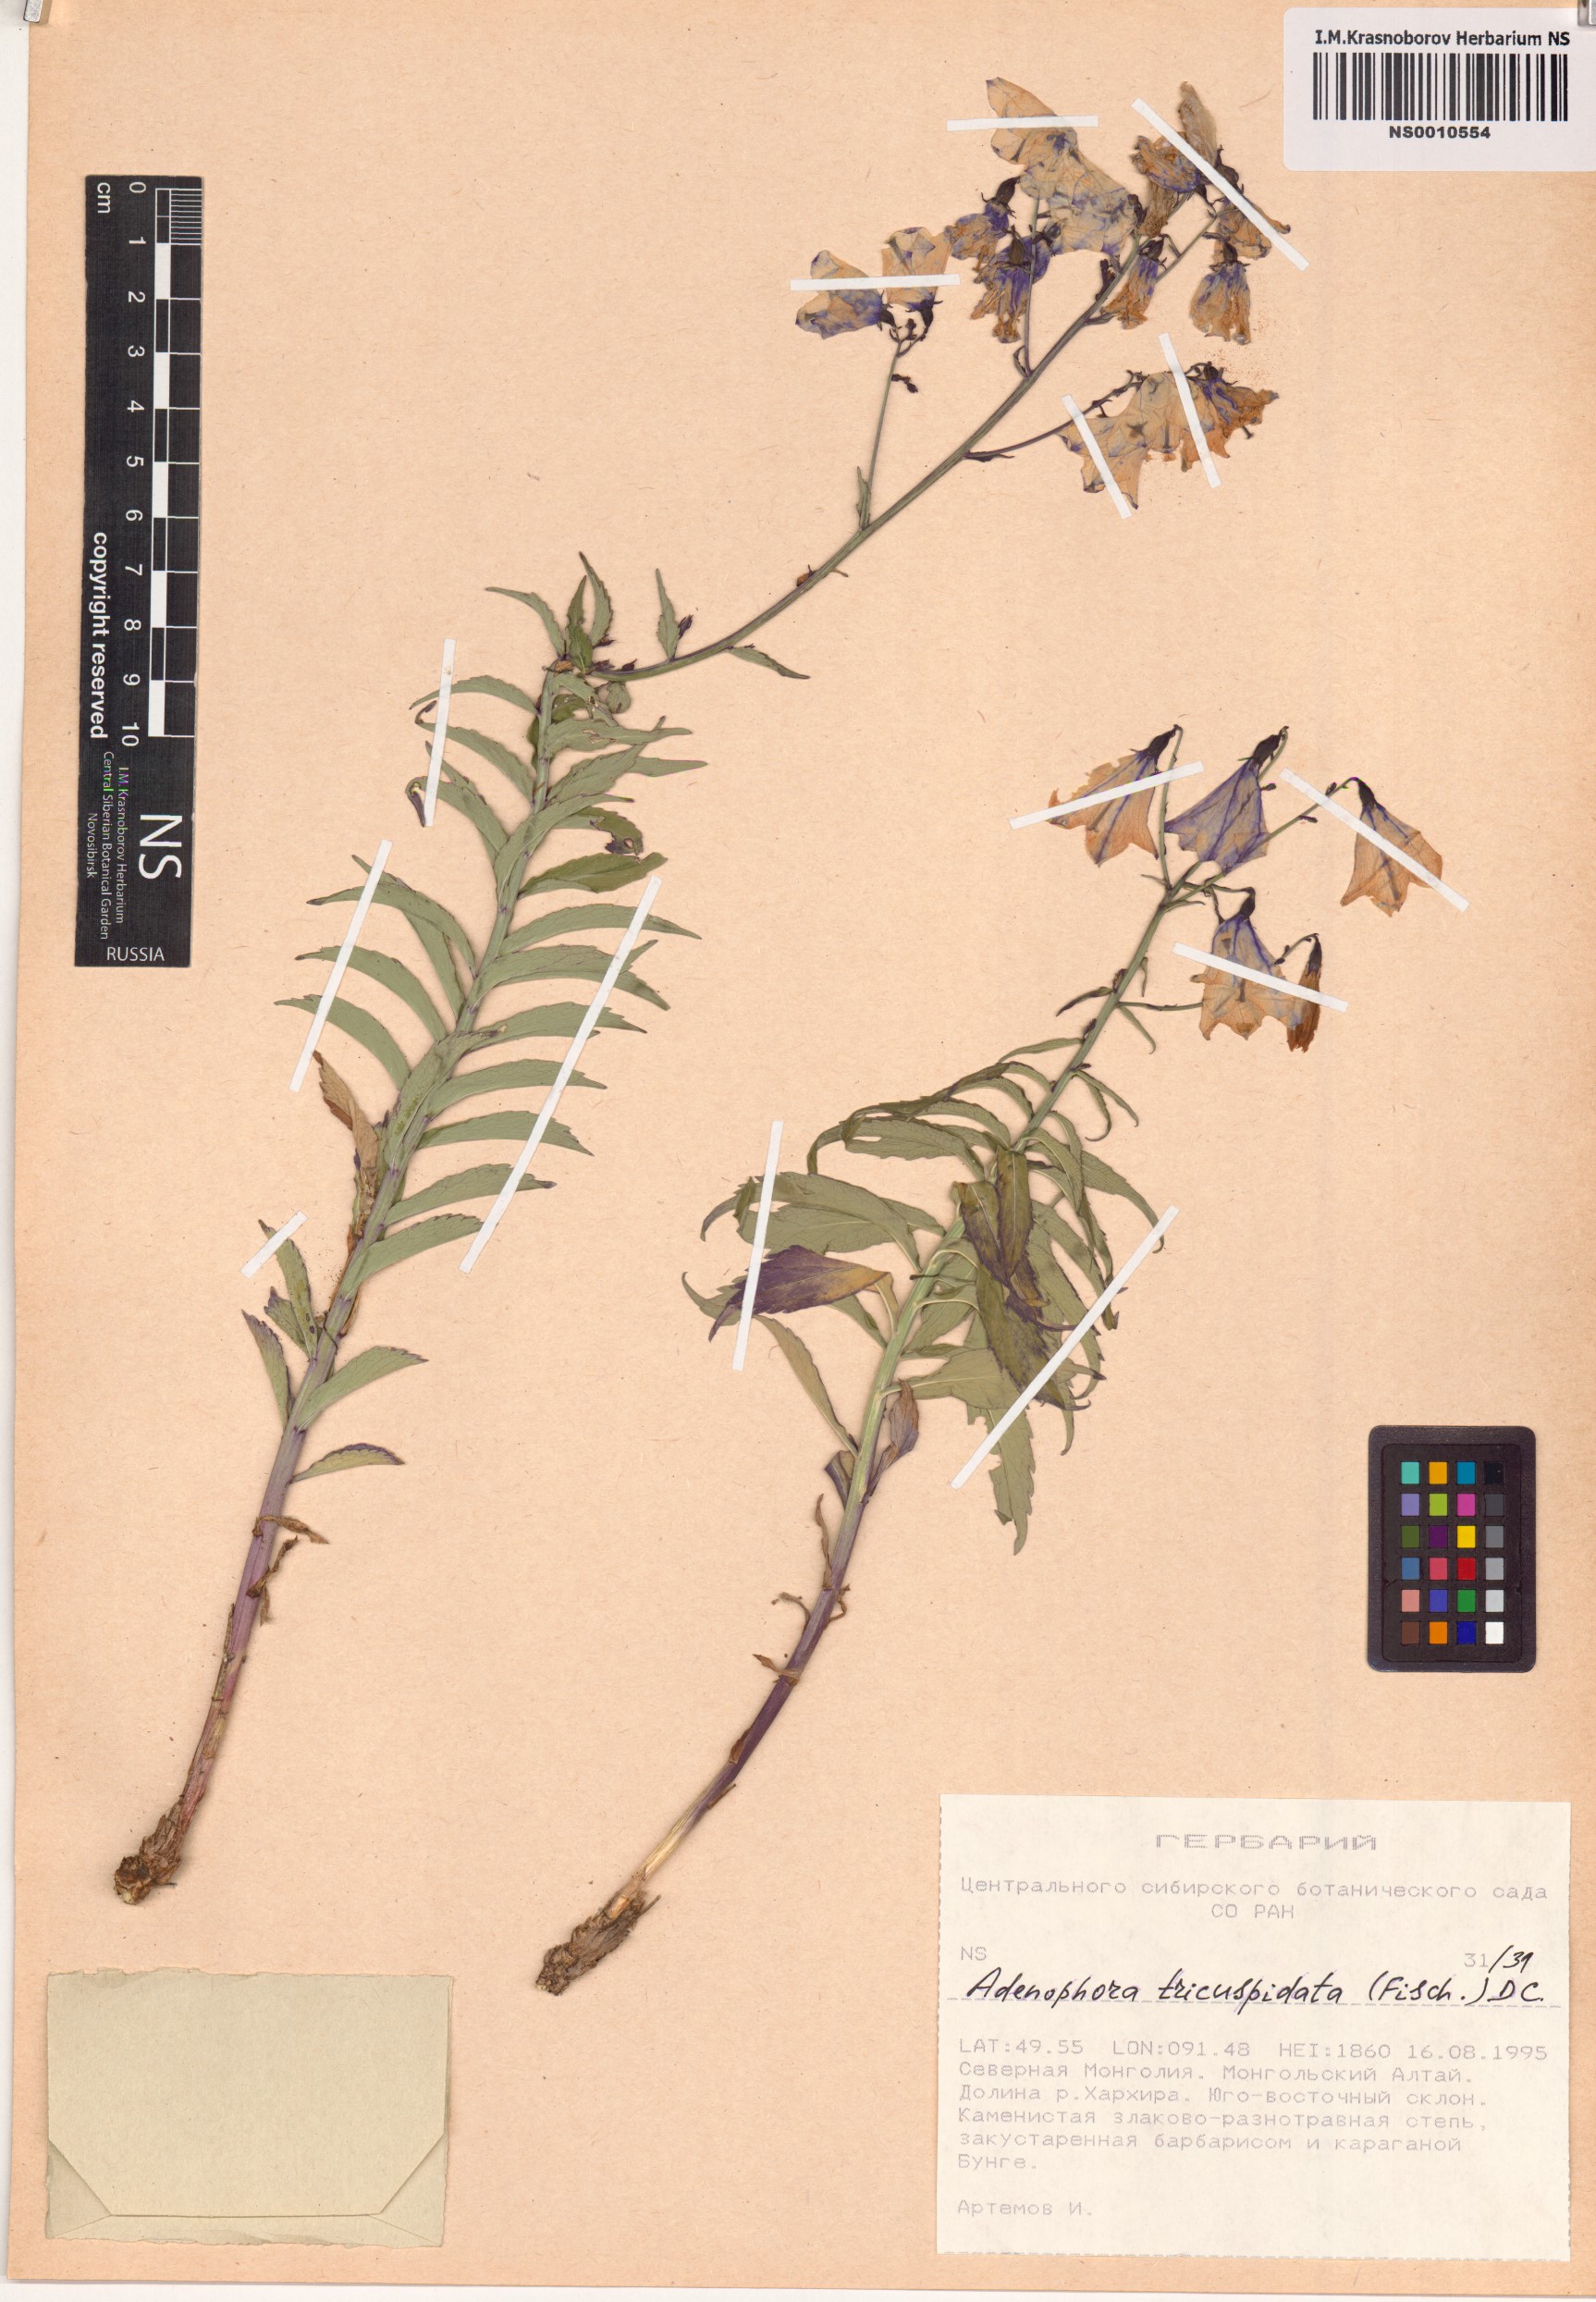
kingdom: Plantae
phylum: Tracheophyta
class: Magnoliopsida
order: Asterales
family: Campanulaceae
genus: Adenophora
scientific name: Adenophora tricuspidata
